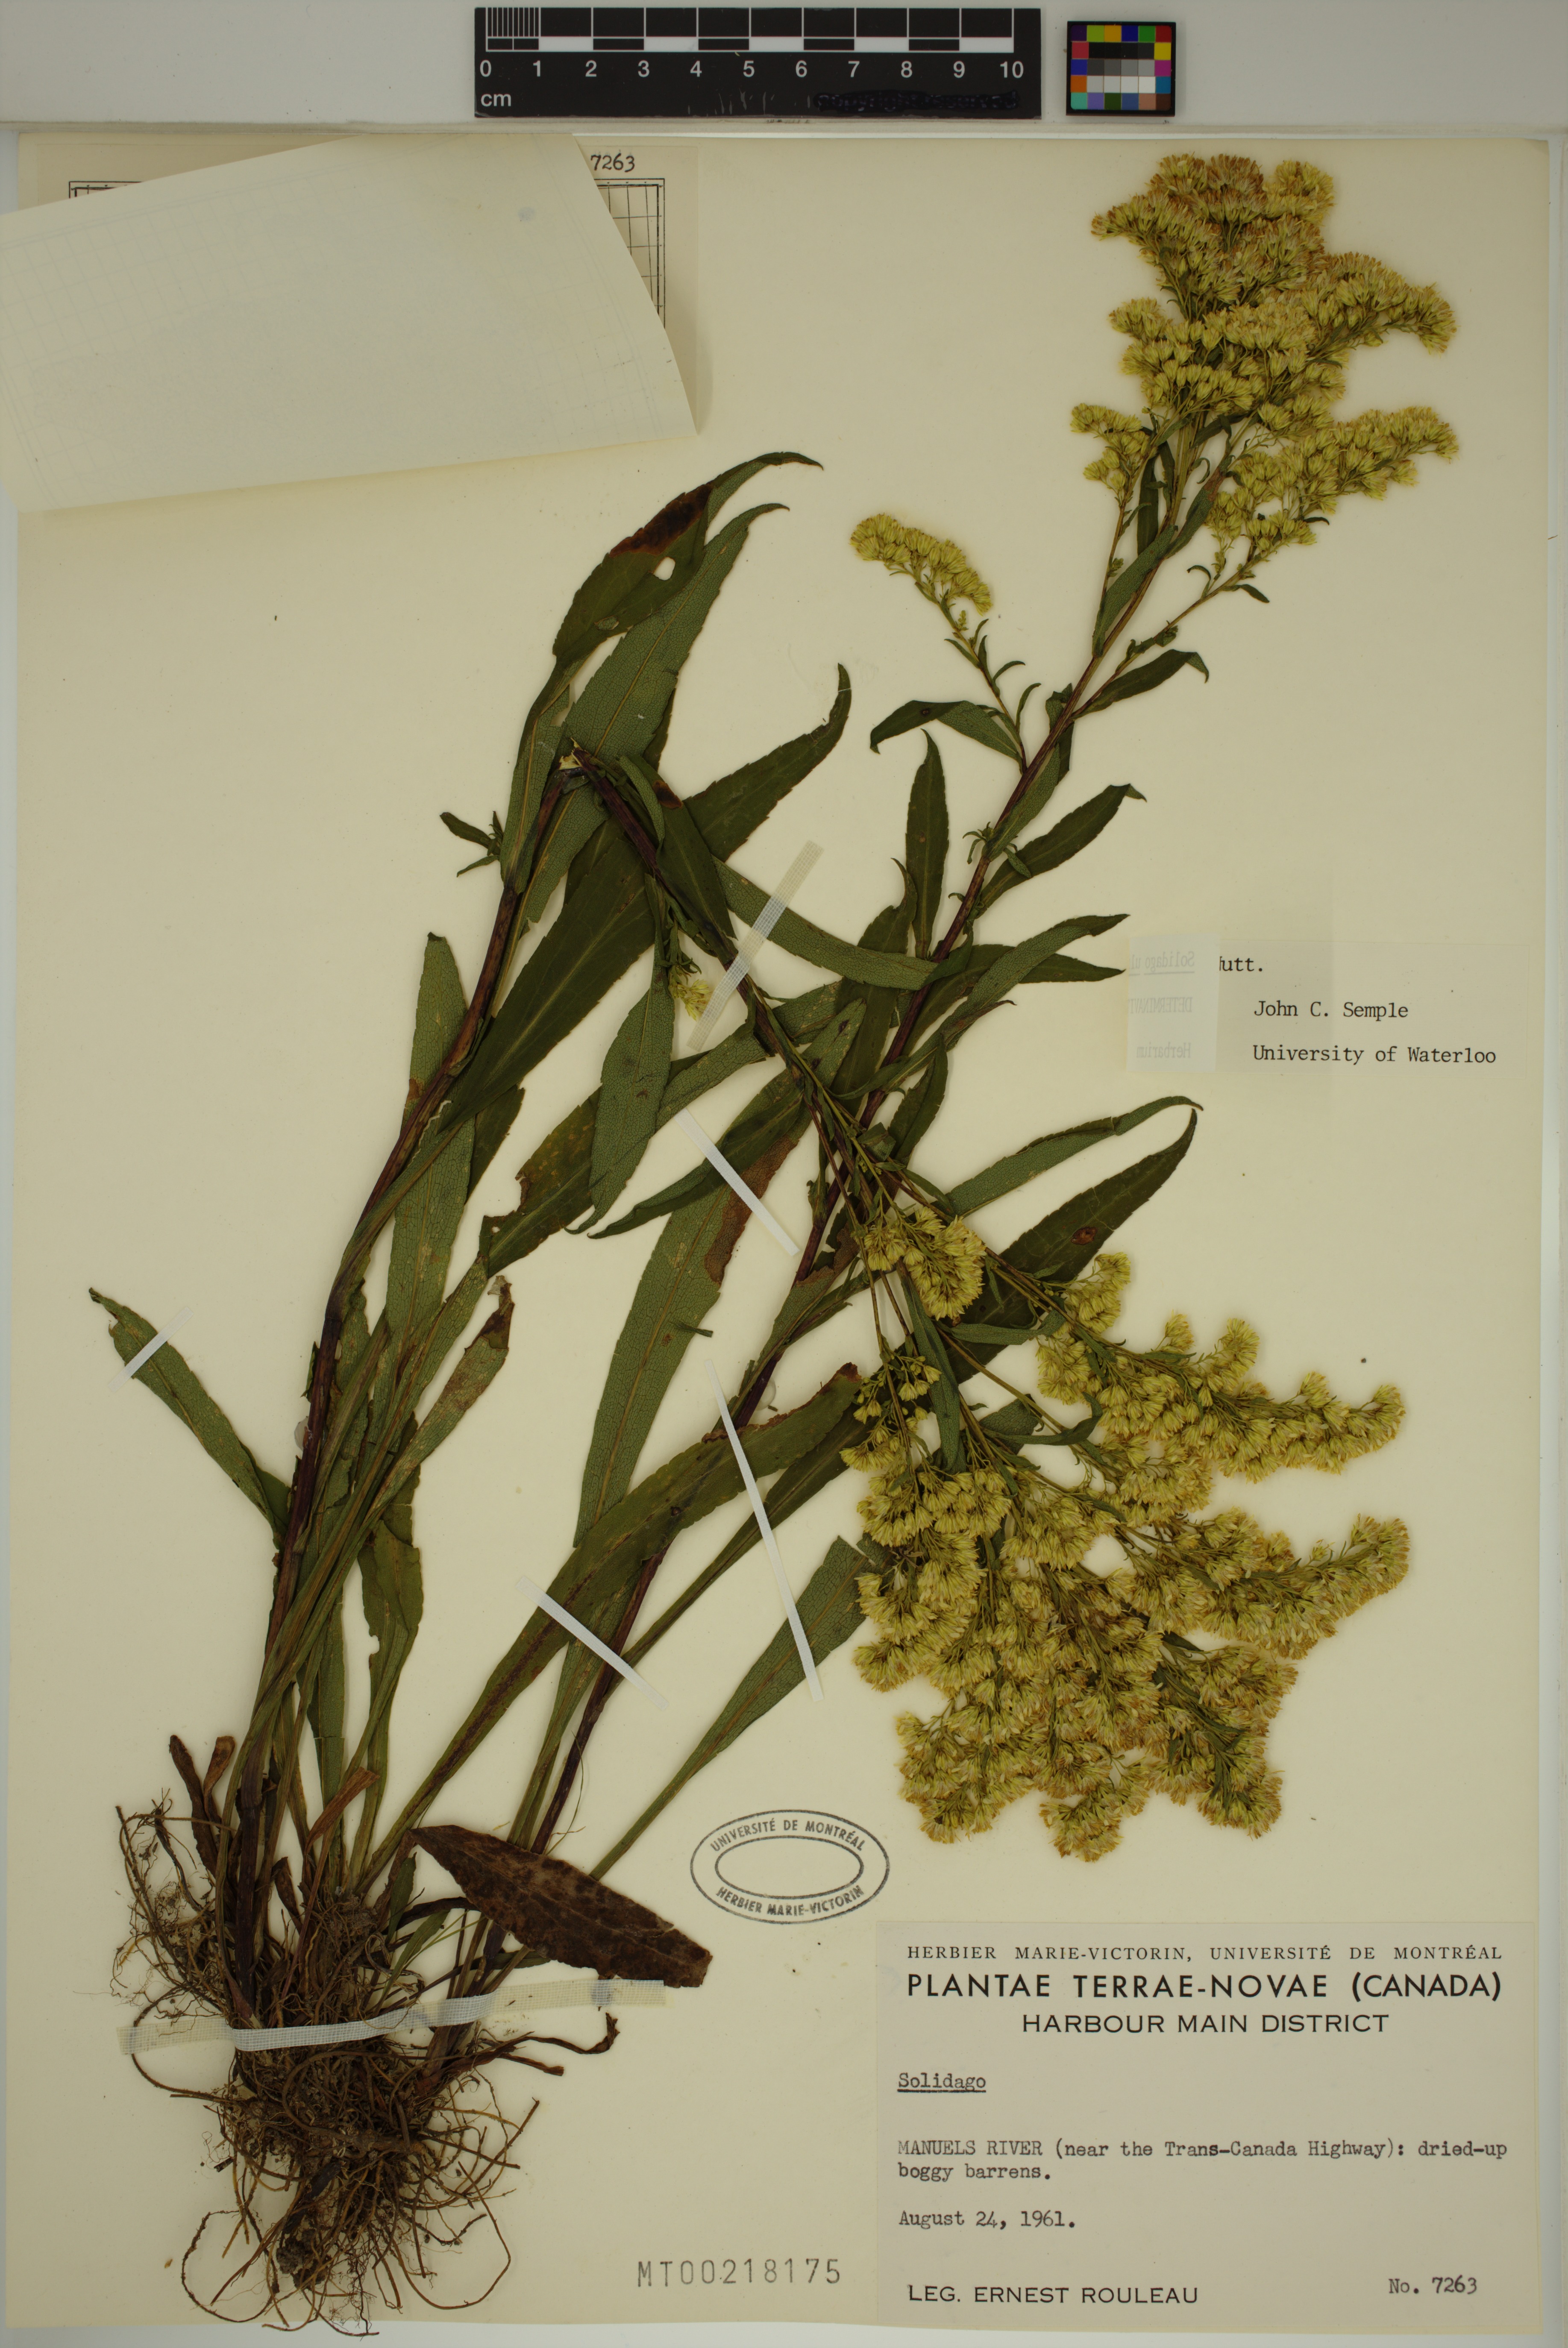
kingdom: Plantae
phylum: Tracheophyta
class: Magnoliopsida
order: Asterales
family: Asteraceae
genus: Solidago
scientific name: Solidago uliginosa
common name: Bog goldenrod
